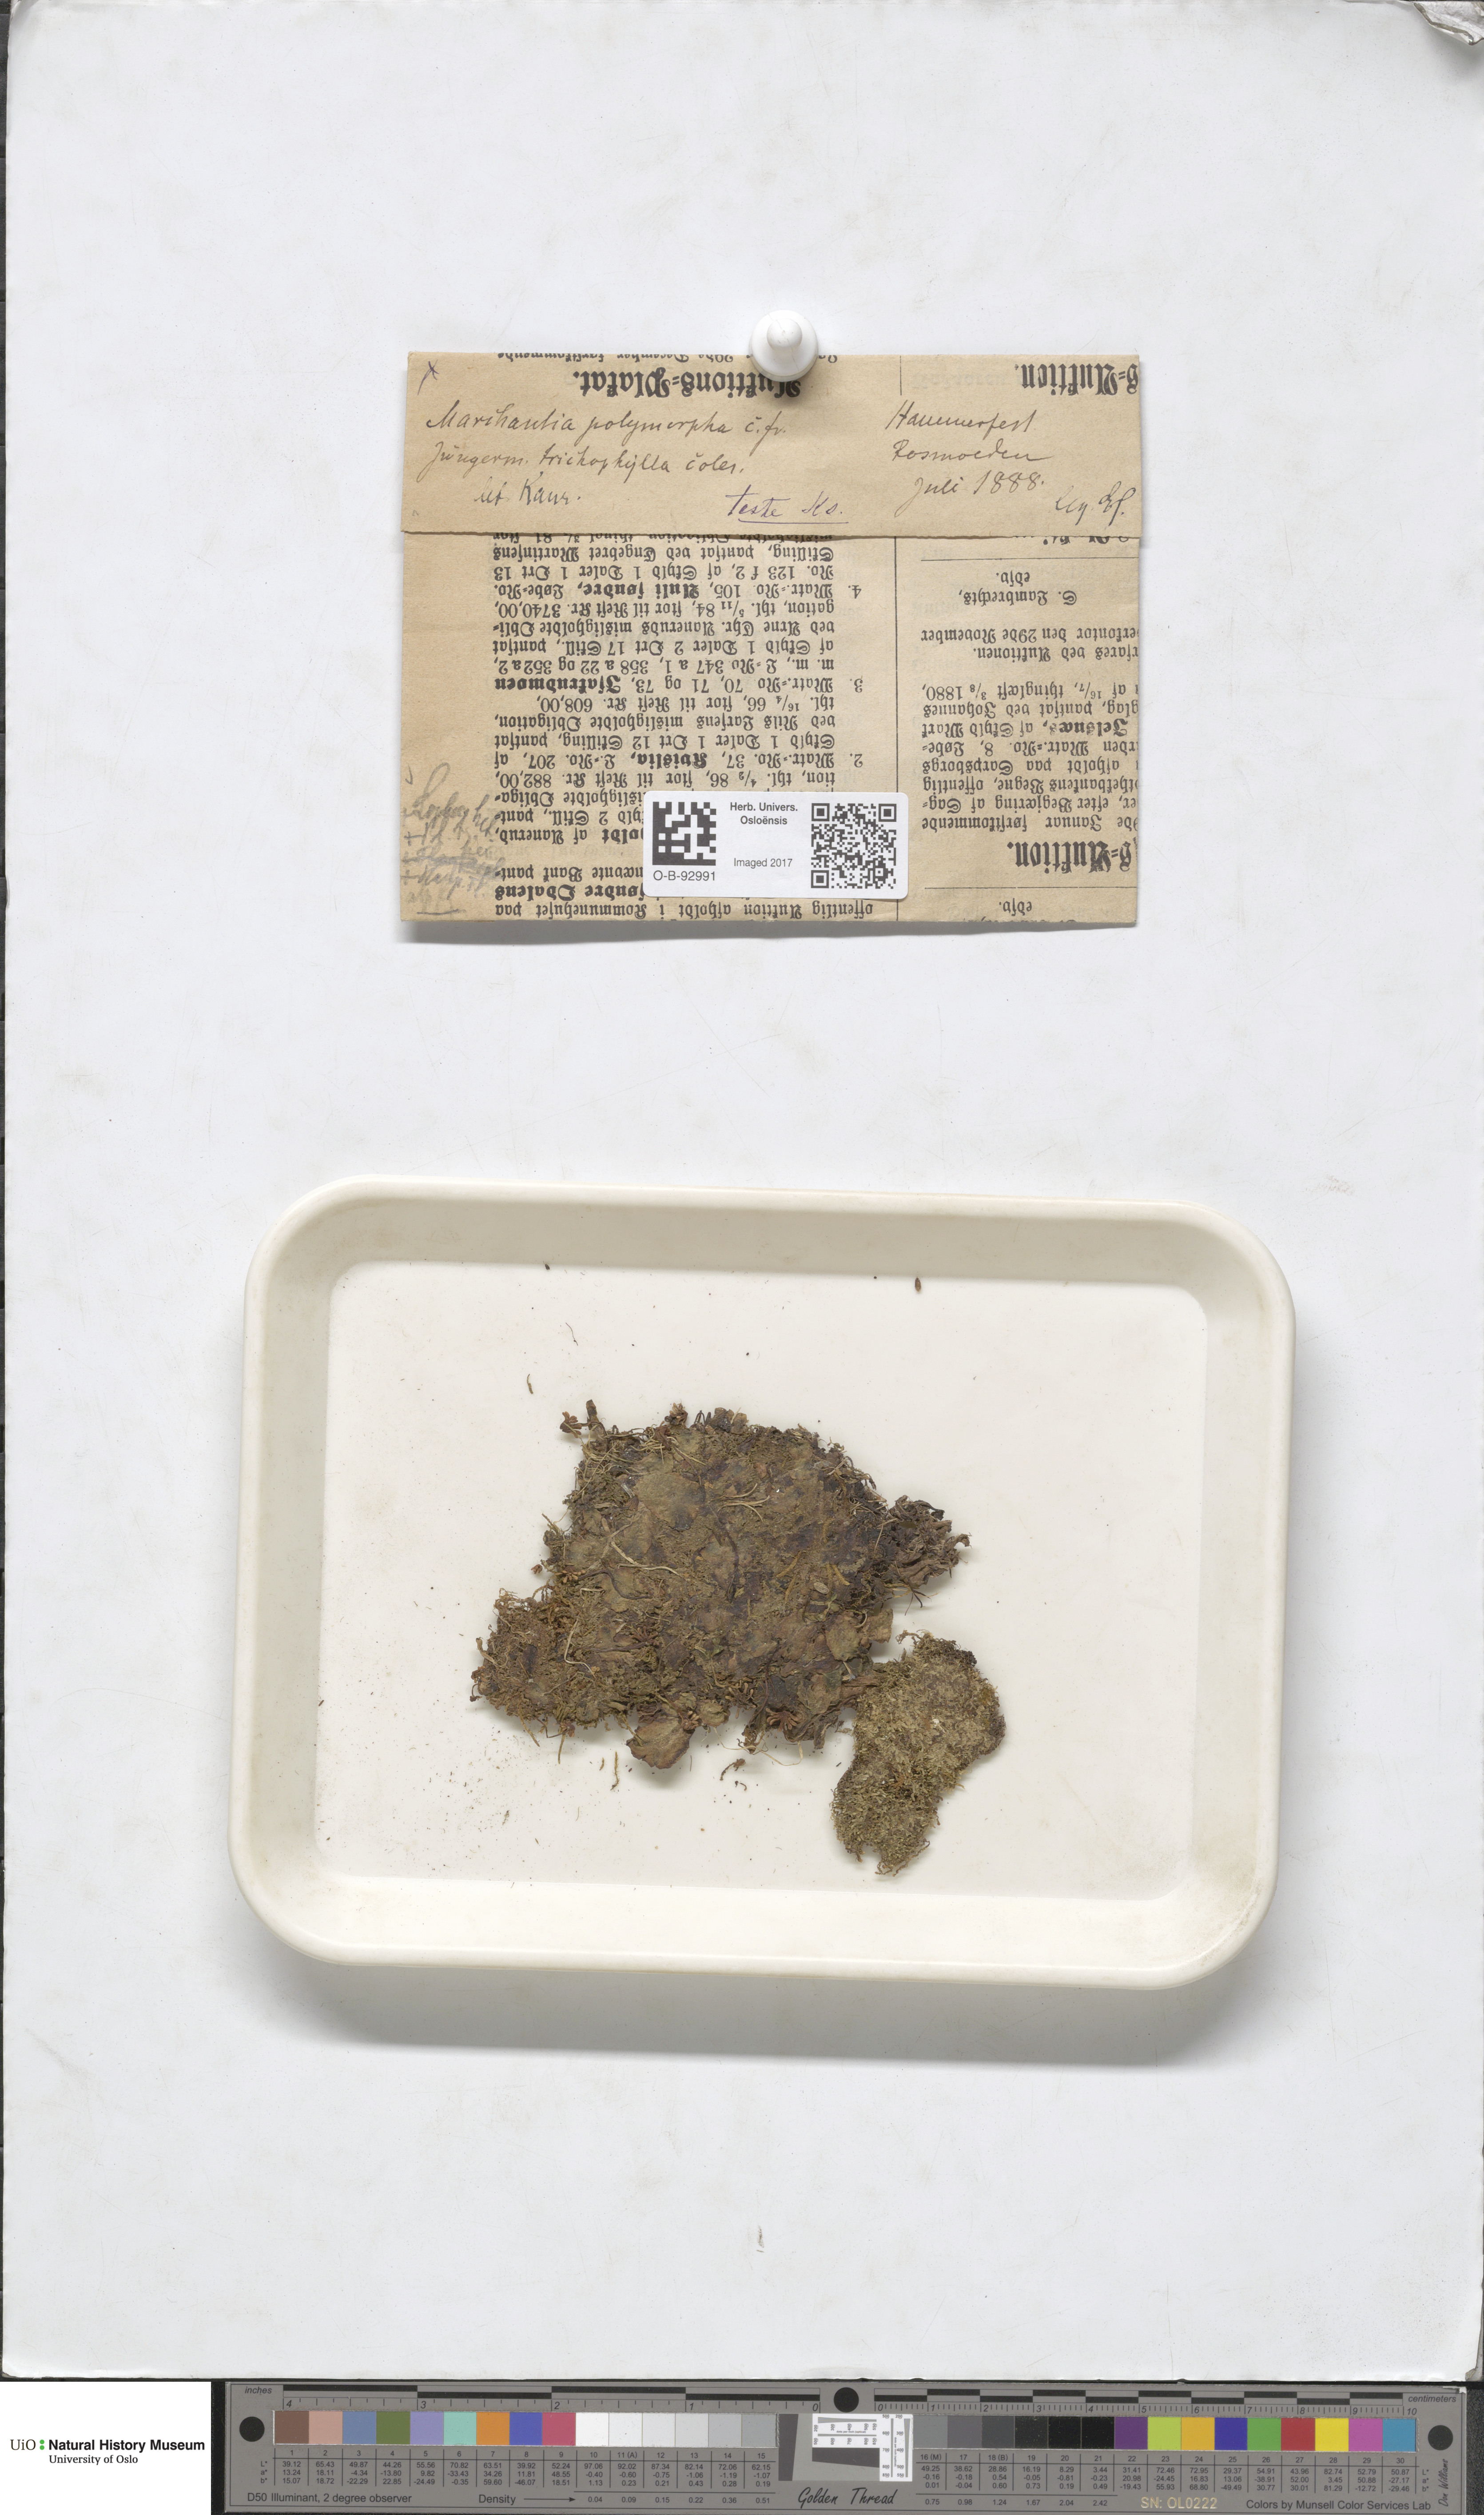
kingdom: Plantae
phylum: Marchantiophyta
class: Marchantiopsida
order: Marchantiales
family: Marchantiaceae
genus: Marchantia
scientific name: Marchantia
